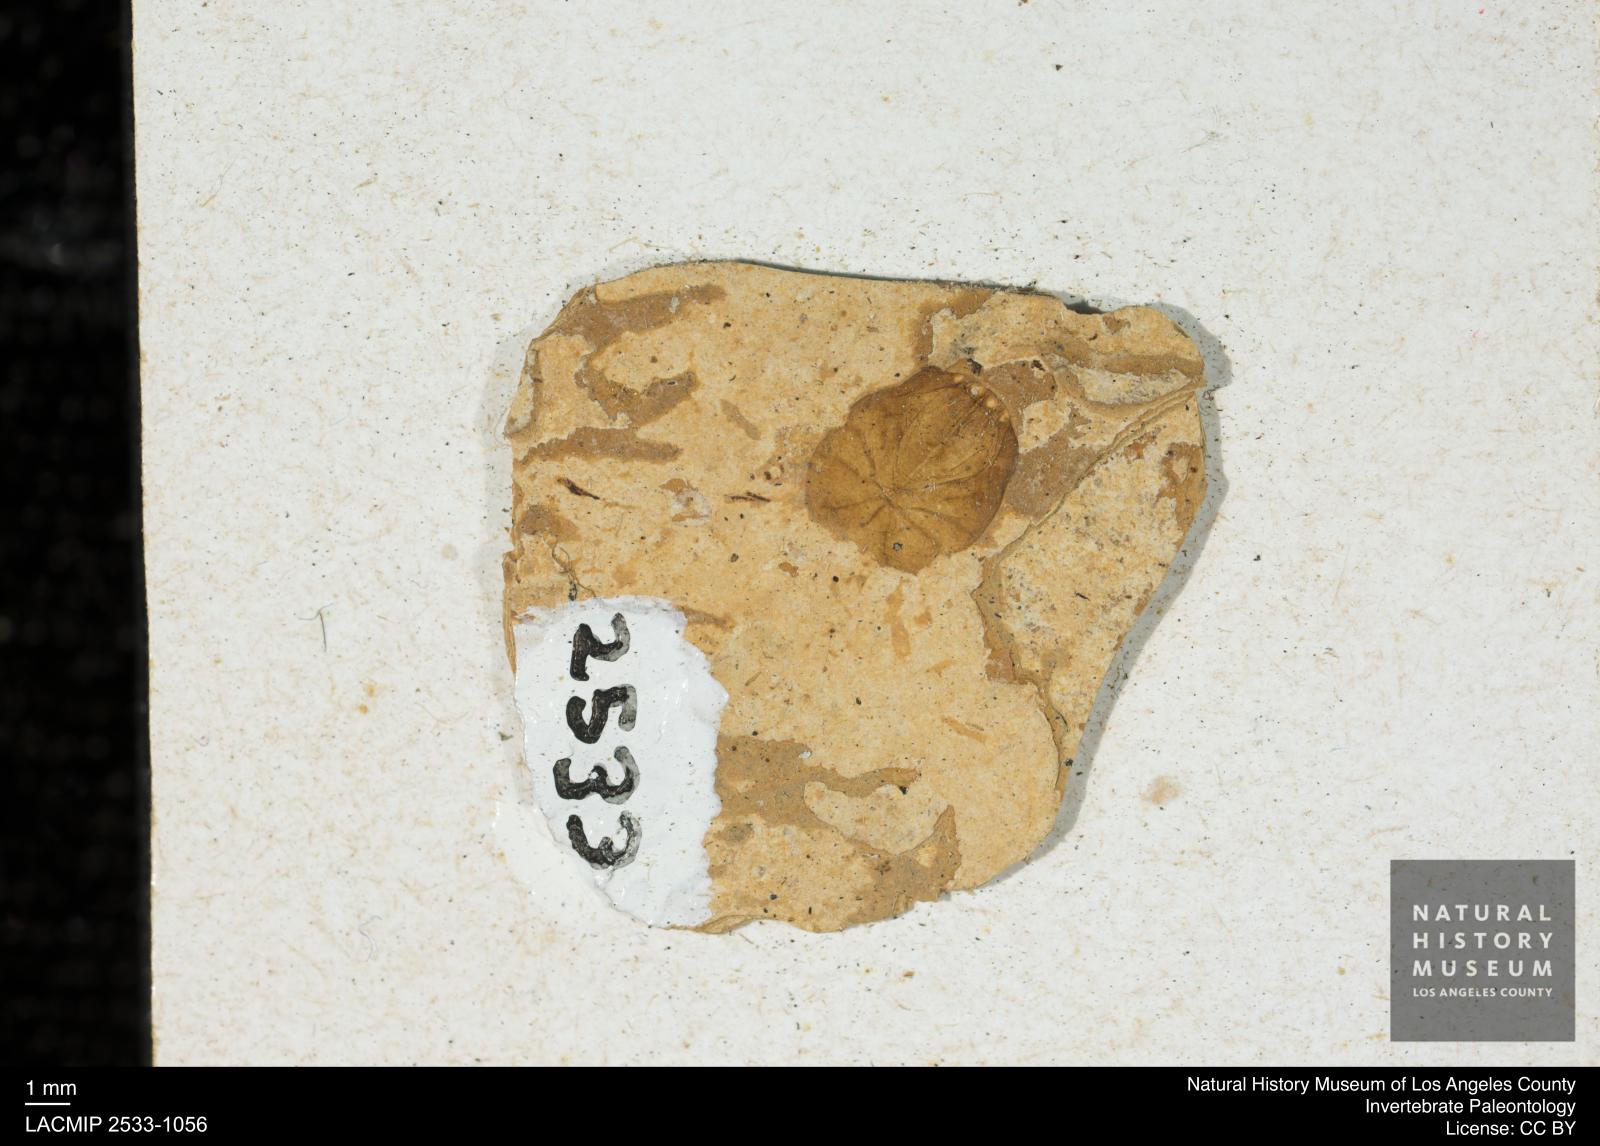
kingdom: Animalia
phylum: Arthropoda
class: Arachnida
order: Araneae
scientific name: Araneae
